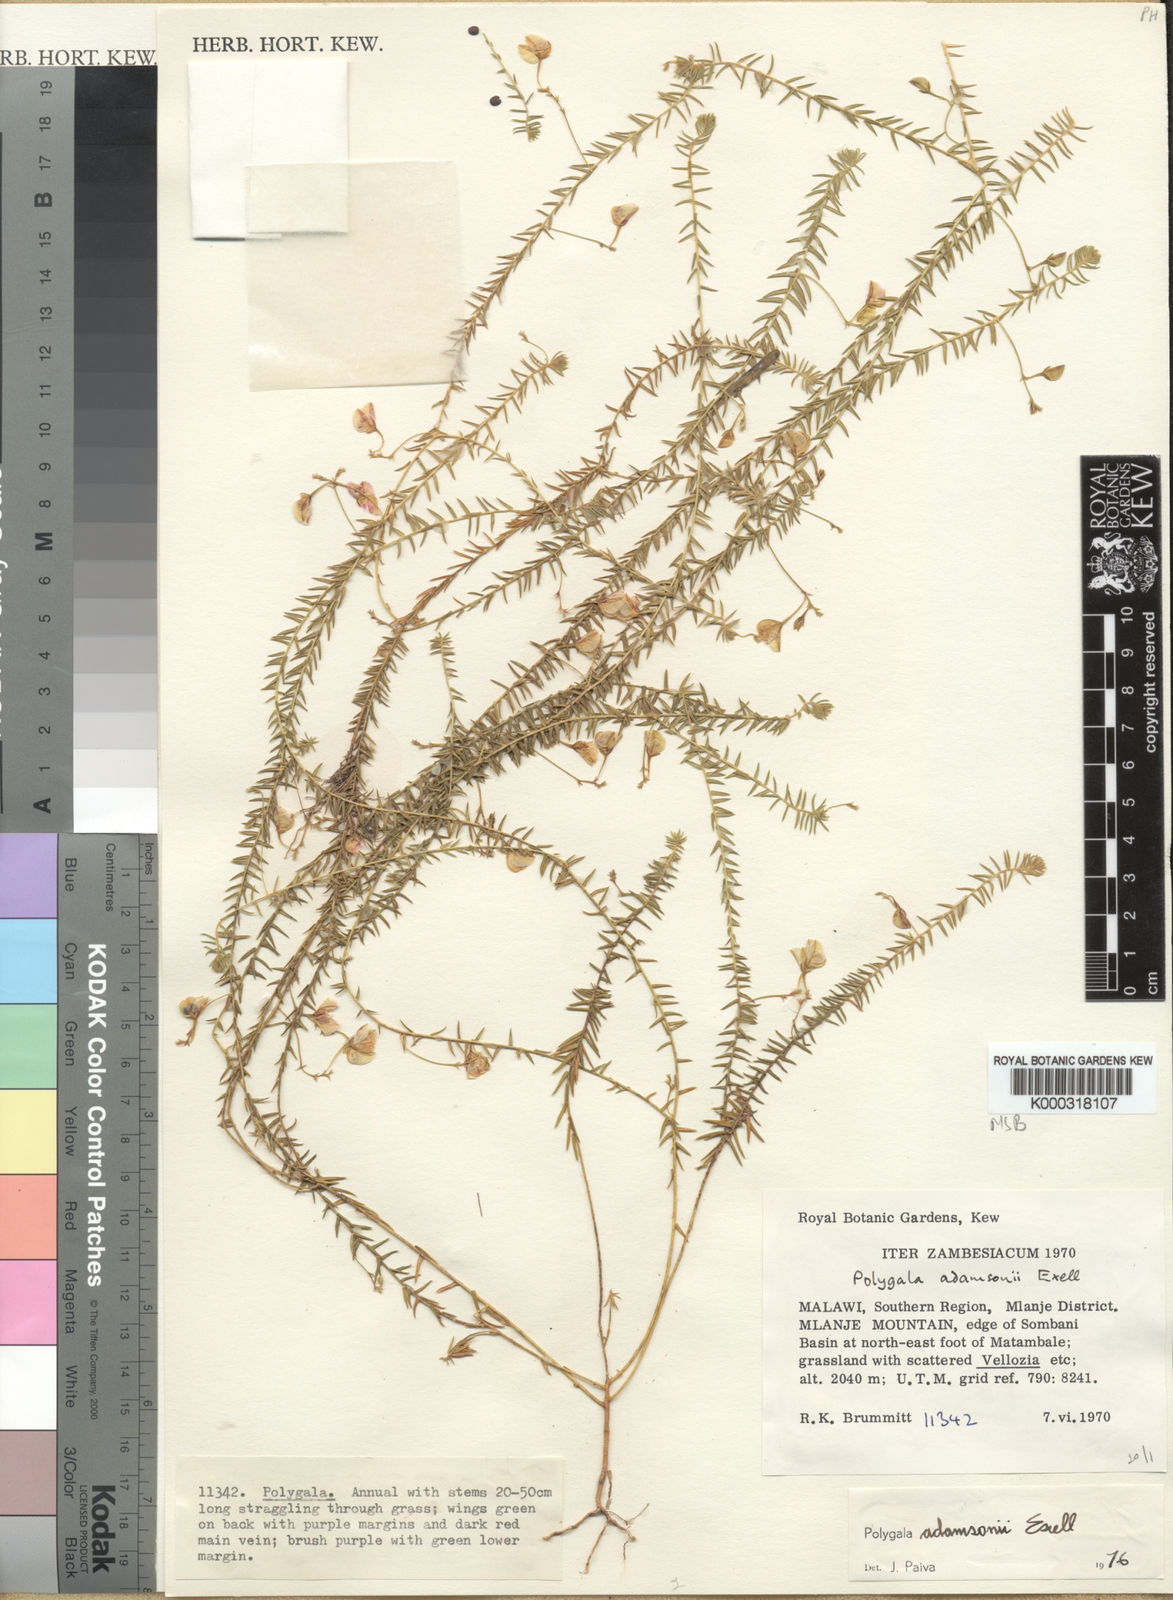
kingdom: Plantae
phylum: Tracheophyta
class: Magnoliopsida
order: Fabales
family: Polygalaceae
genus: Polygala
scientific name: Polygala adamsonii
